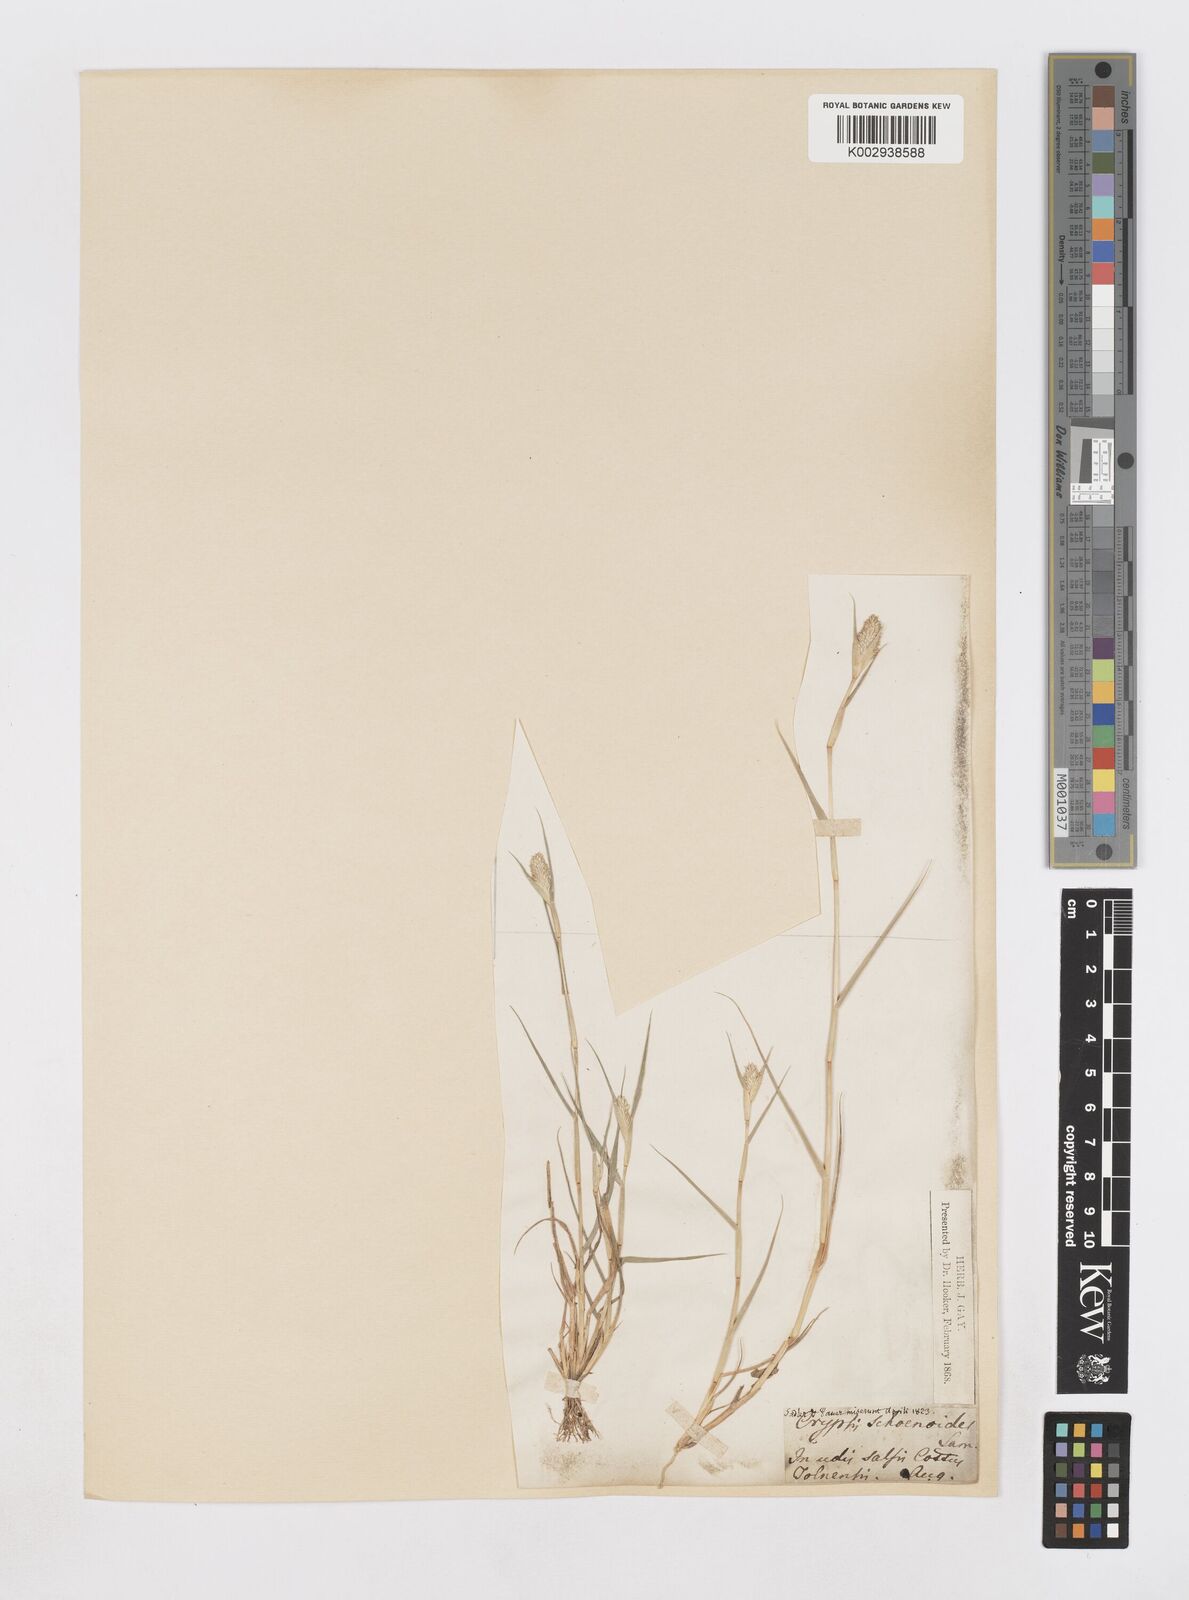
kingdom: Plantae
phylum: Tracheophyta
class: Liliopsida
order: Poales
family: Poaceae
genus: Sporobolus
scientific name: Sporobolus schoenoides
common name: Rush-like timothy
